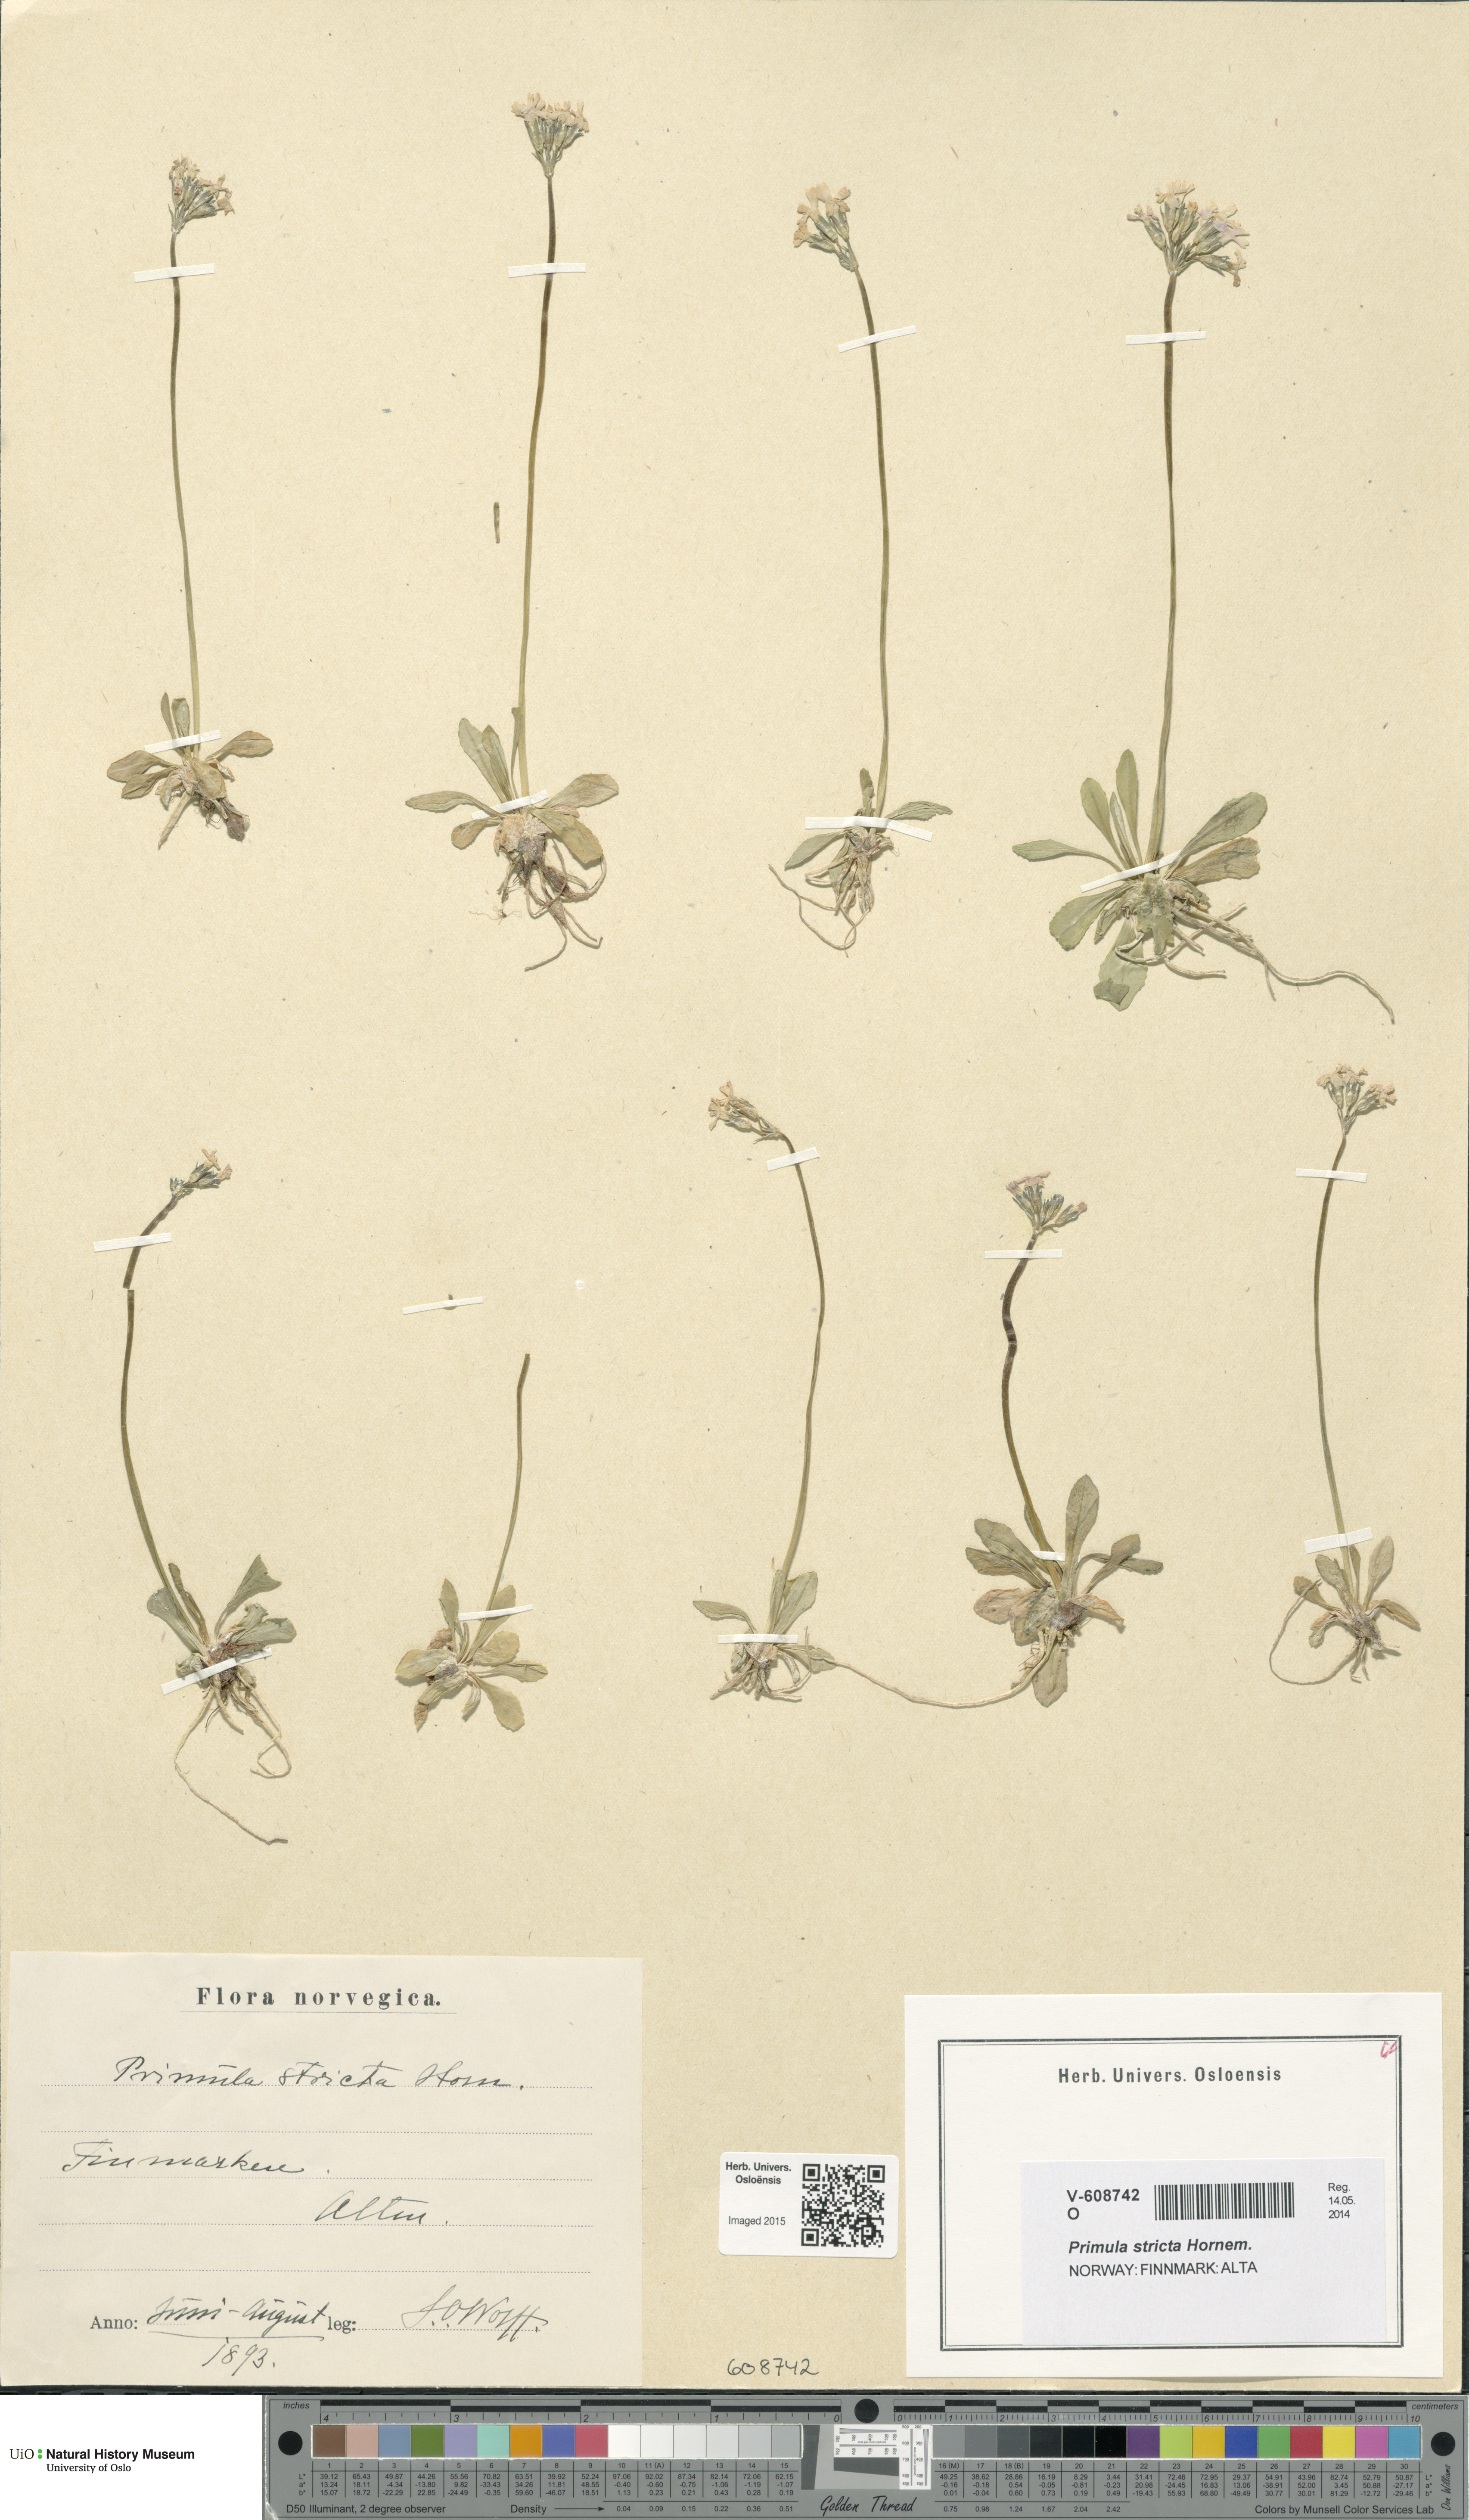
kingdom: Plantae
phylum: Tracheophyta
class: Magnoliopsida
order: Ericales
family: Primulaceae
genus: Primula
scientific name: Primula stricta
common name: Coastal primrose
